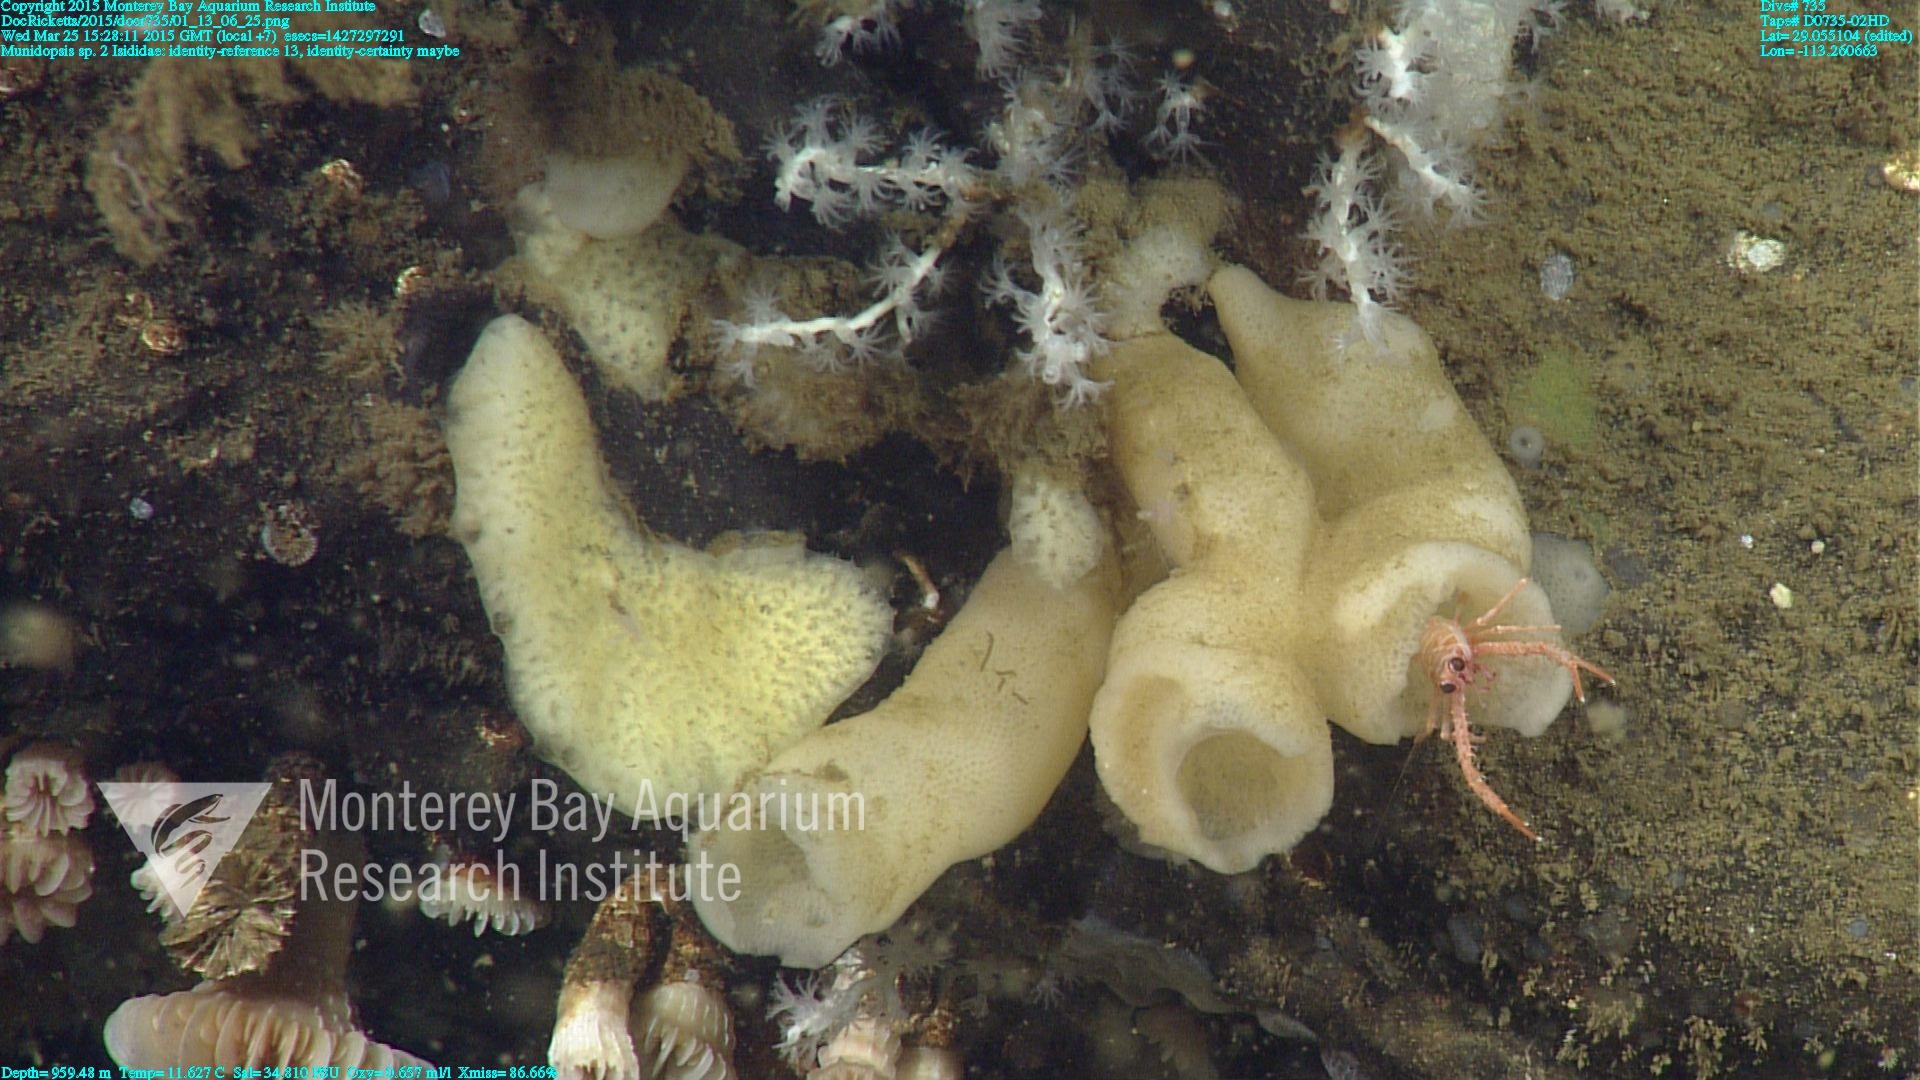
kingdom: Animalia
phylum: Cnidaria
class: Anthozoa
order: Scleralcyonacea
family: Keratoisididae
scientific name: Keratoisididae
